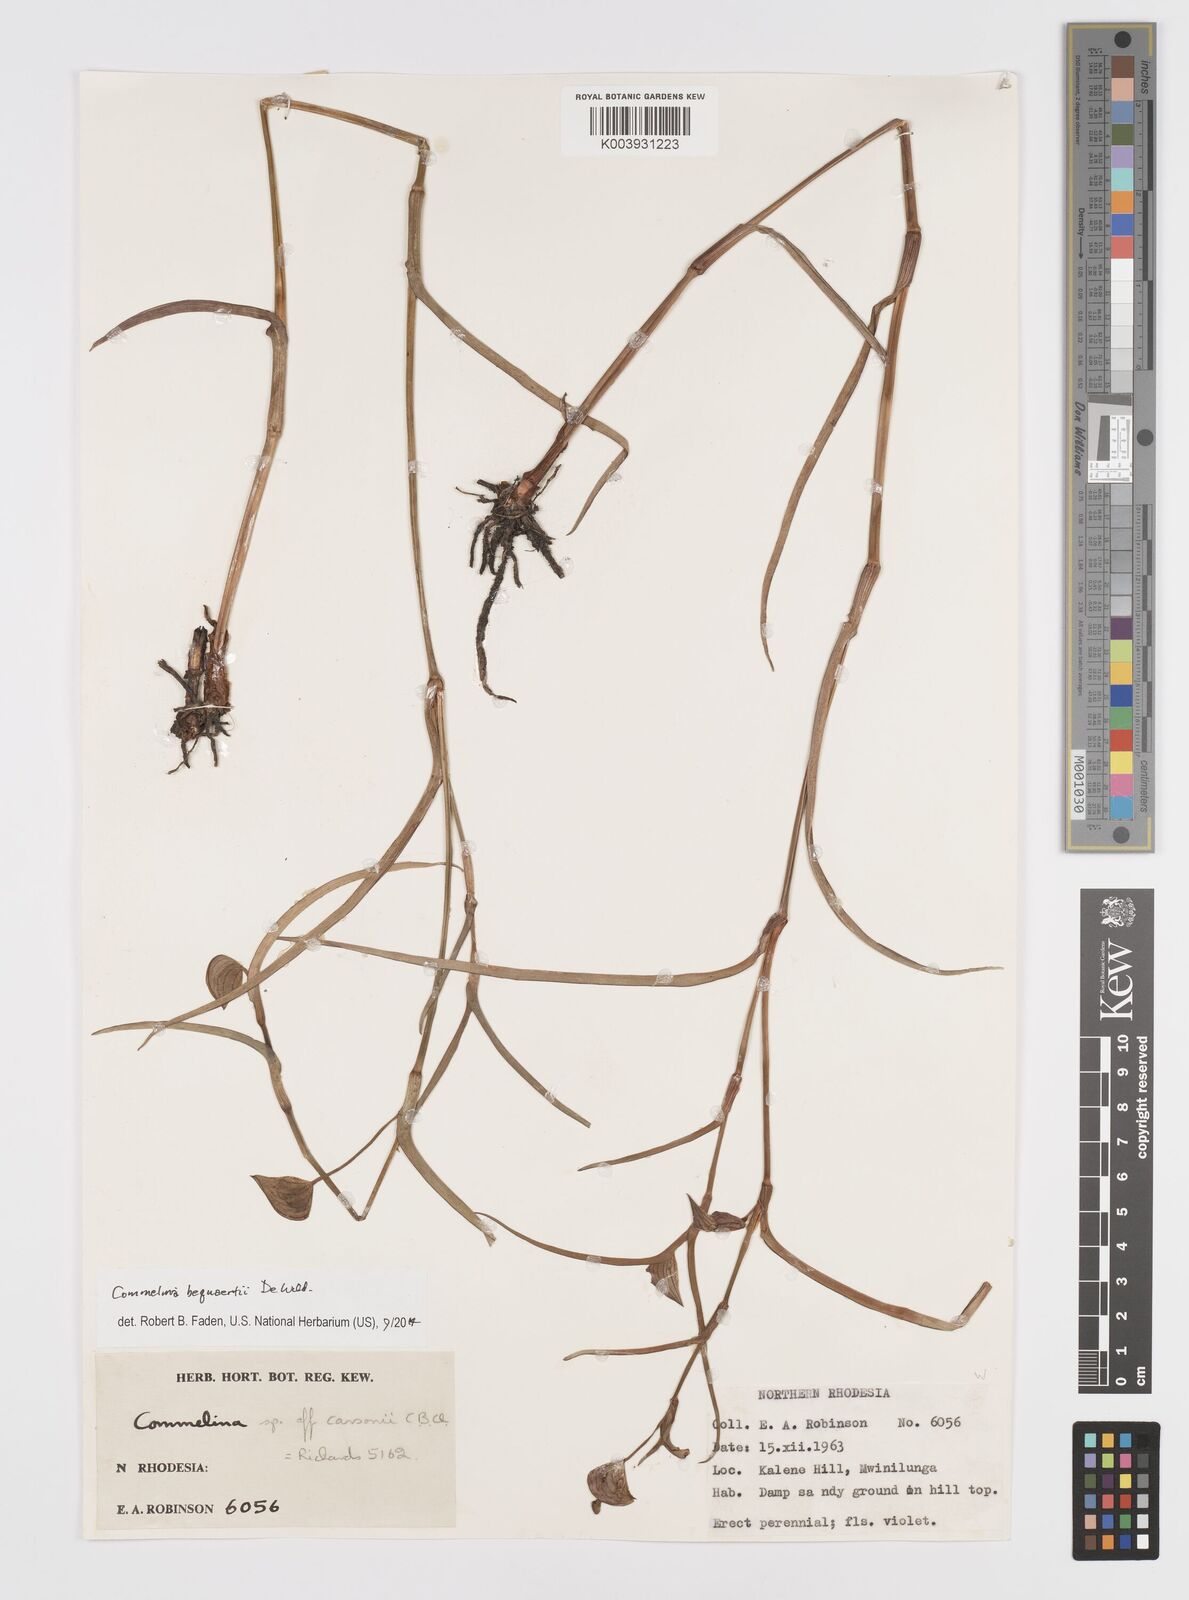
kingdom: Plantae
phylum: Tracheophyta
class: Liliopsida
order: Commelinales
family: Commelinaceae
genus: Commelina
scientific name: Commelina bequaertii
